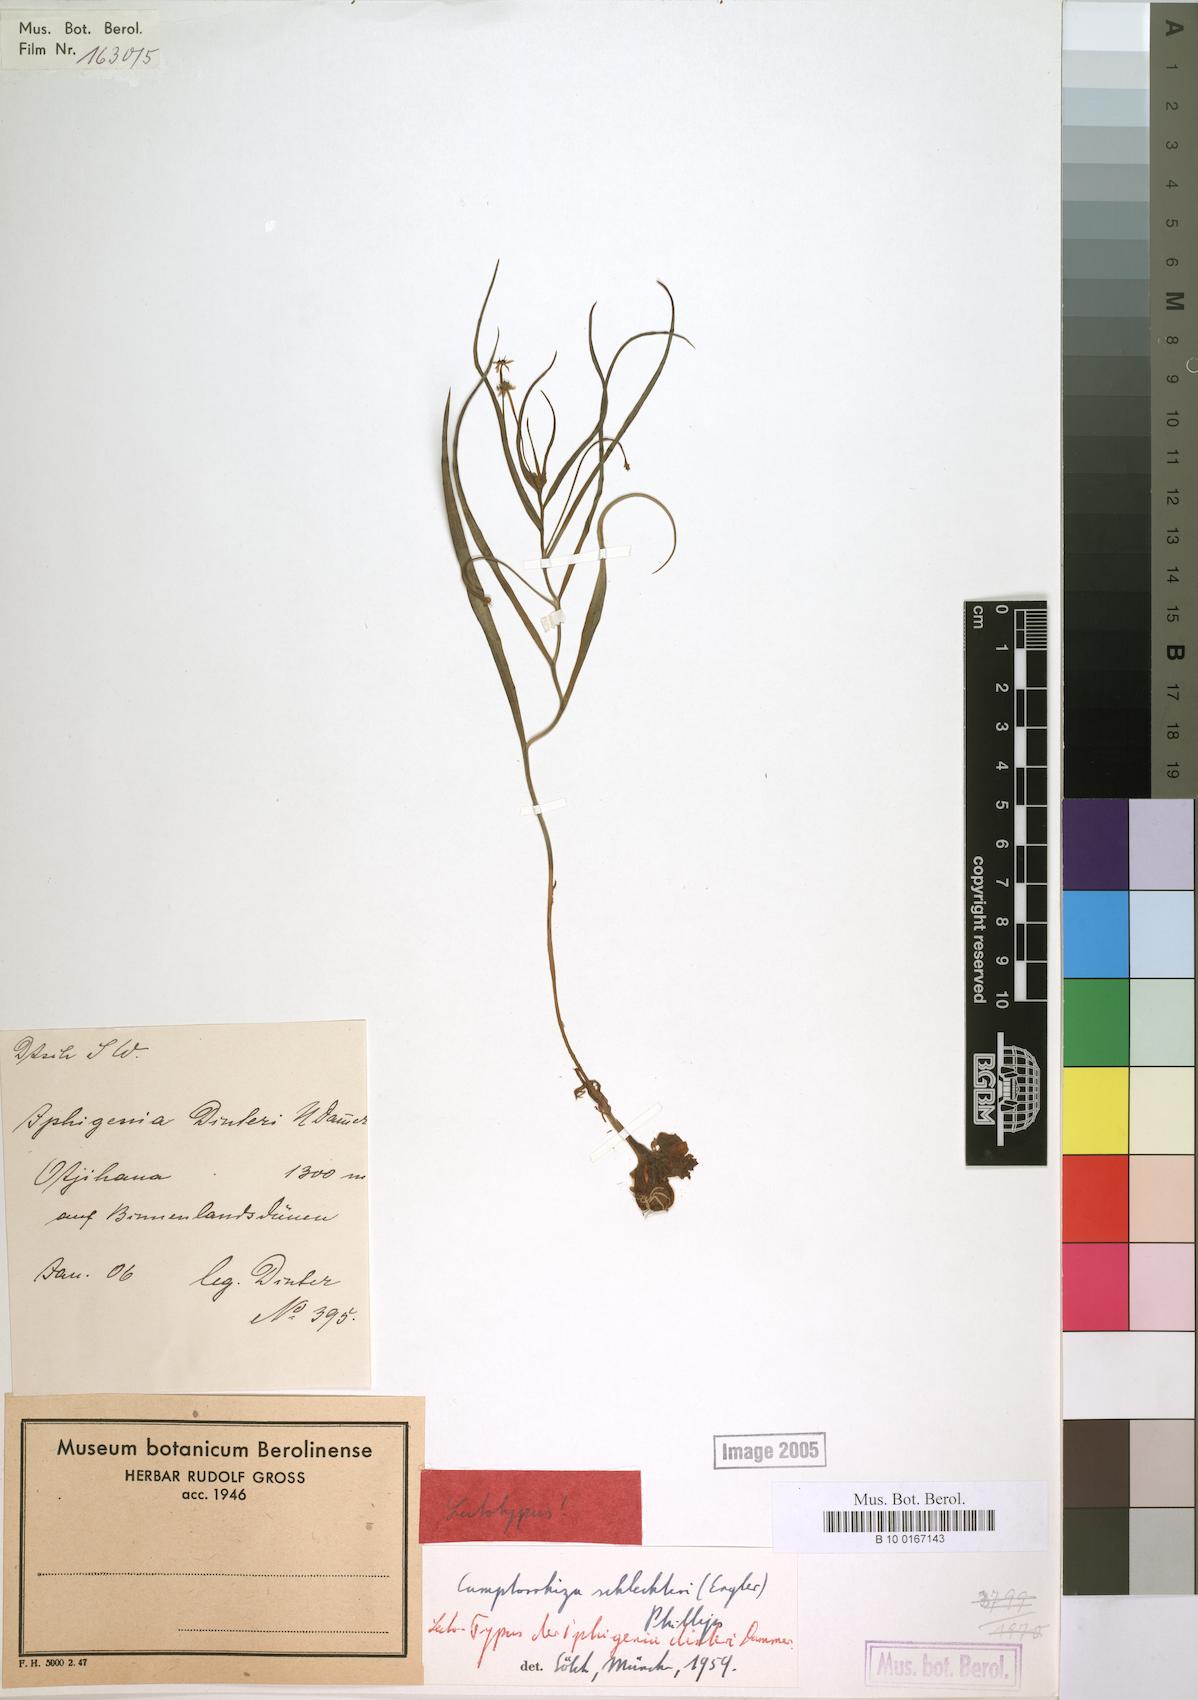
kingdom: Plantae
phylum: Tracheophyta
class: Liliopsida
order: Liliales
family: Colchicaceae
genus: Camptorrhiza
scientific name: Camptorrhiza strumosa
